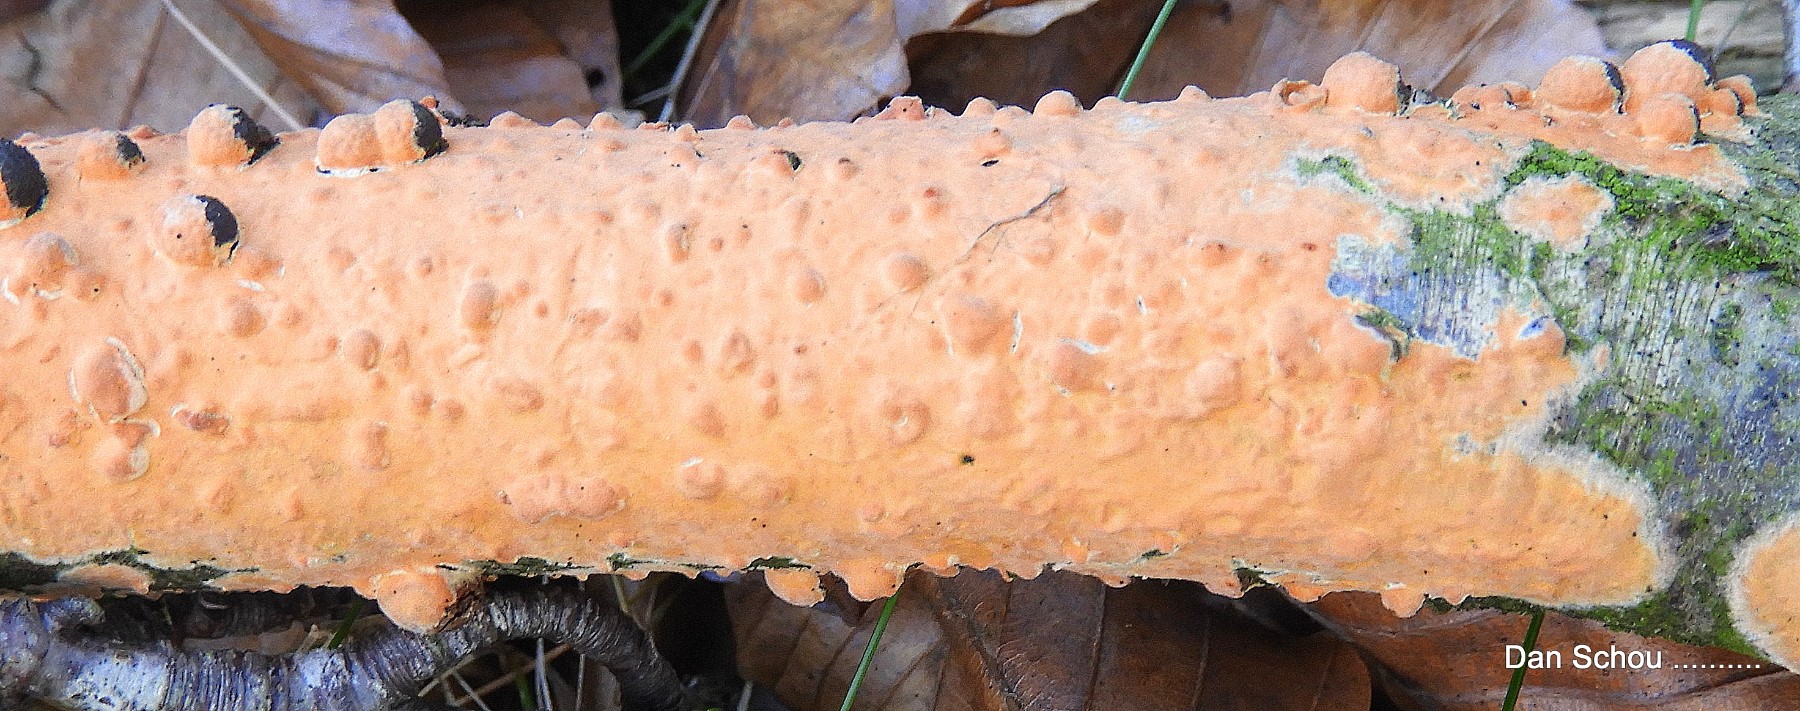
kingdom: Fungi
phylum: Basidiomycota
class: Agaricomycetes
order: Russulales
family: Peniophoraceae
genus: Peniophora
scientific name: Peniophora incarnata
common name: laksefarvet voksskind
